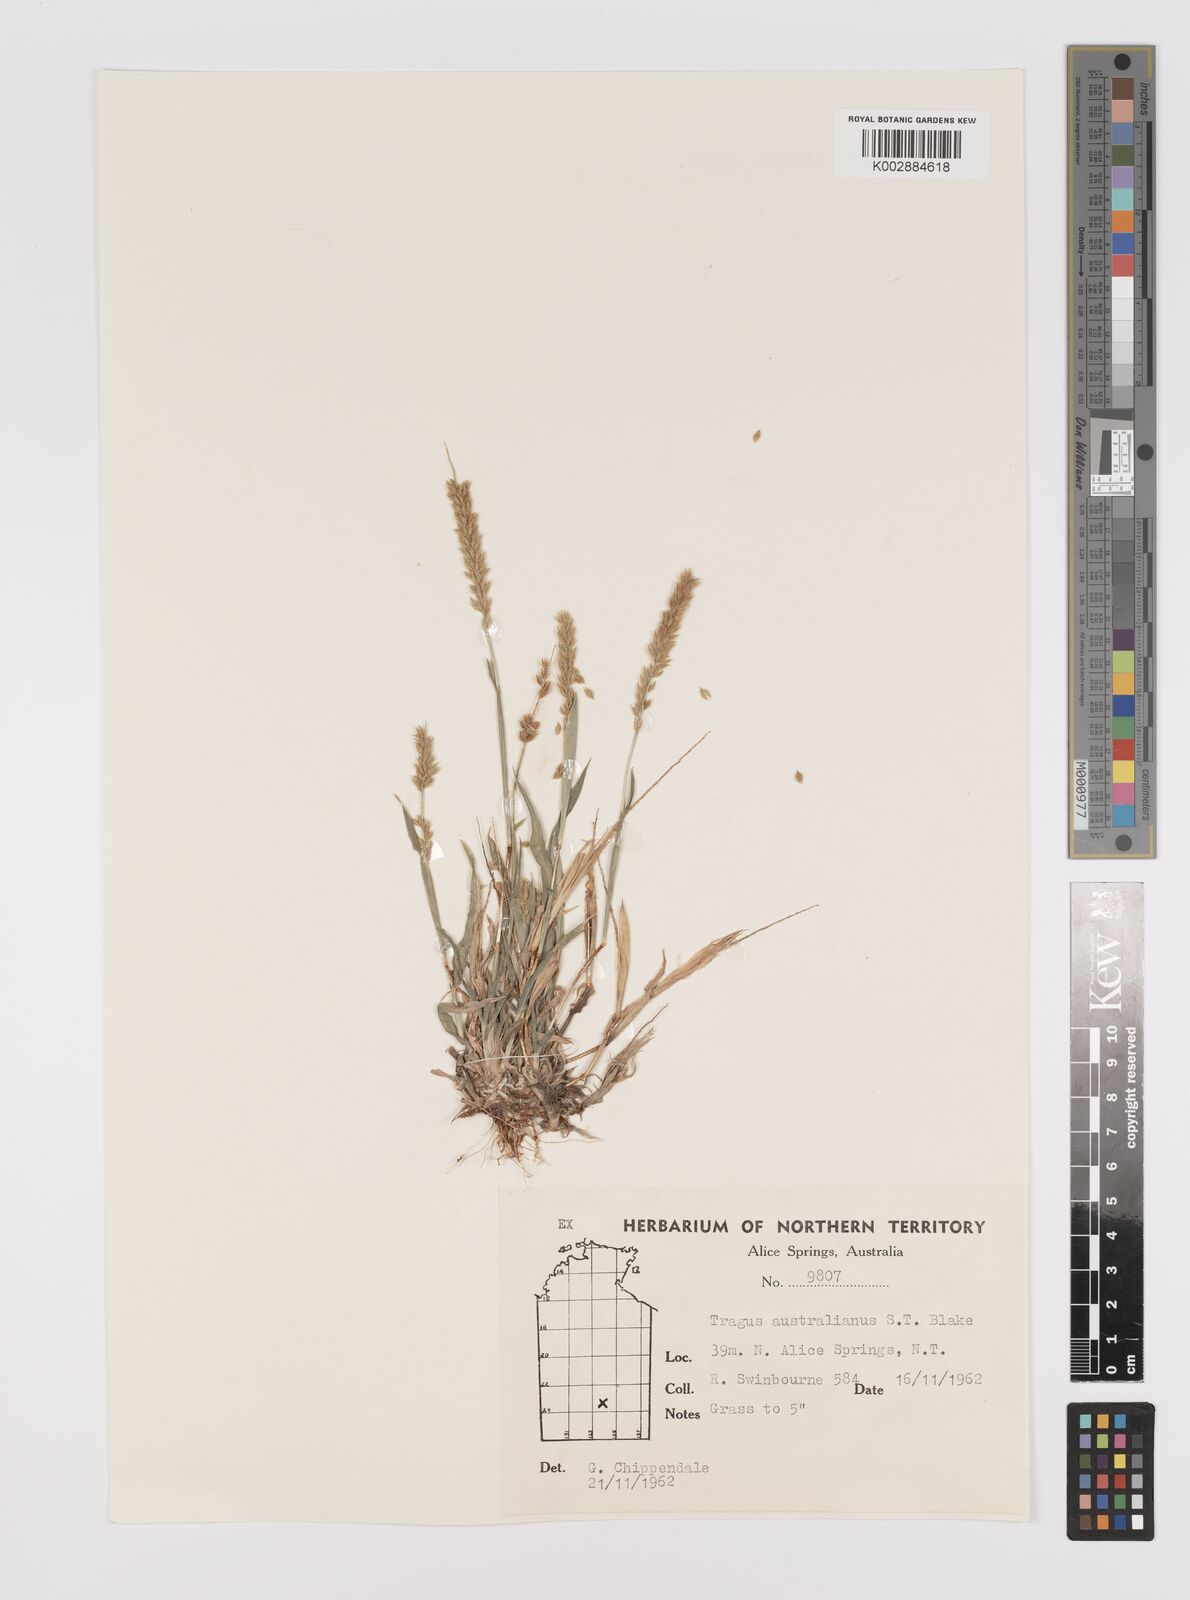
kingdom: Plantae
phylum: Tracheophyta
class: Liliopsida
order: Poales
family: Poaceae
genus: Tragus
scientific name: Tragus australianus
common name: Australian bur-grass
